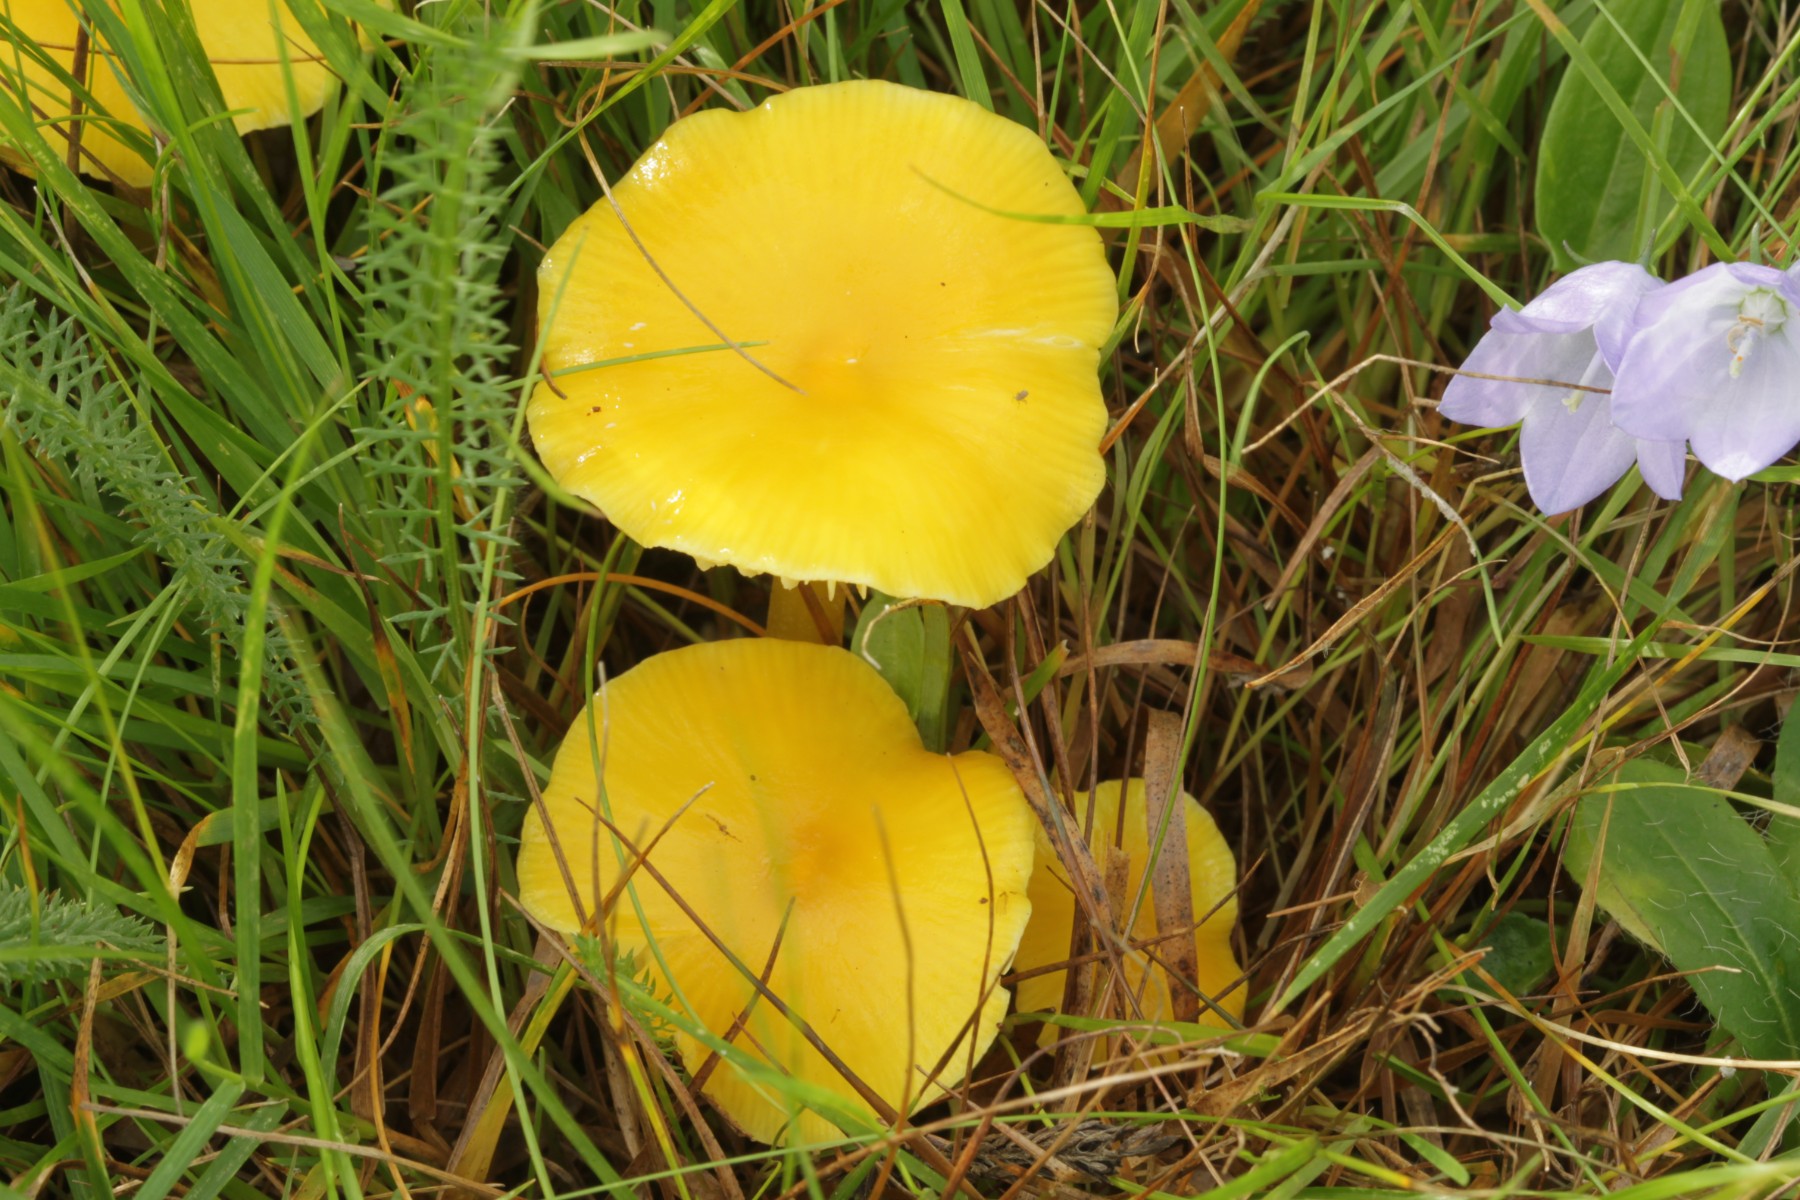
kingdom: Fungi
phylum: Basidiomycota
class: Agaricomycetes
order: Agaricales
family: Hygrophoraceae
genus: Hygrocybe
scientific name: Hygrocybe
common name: vokshat
